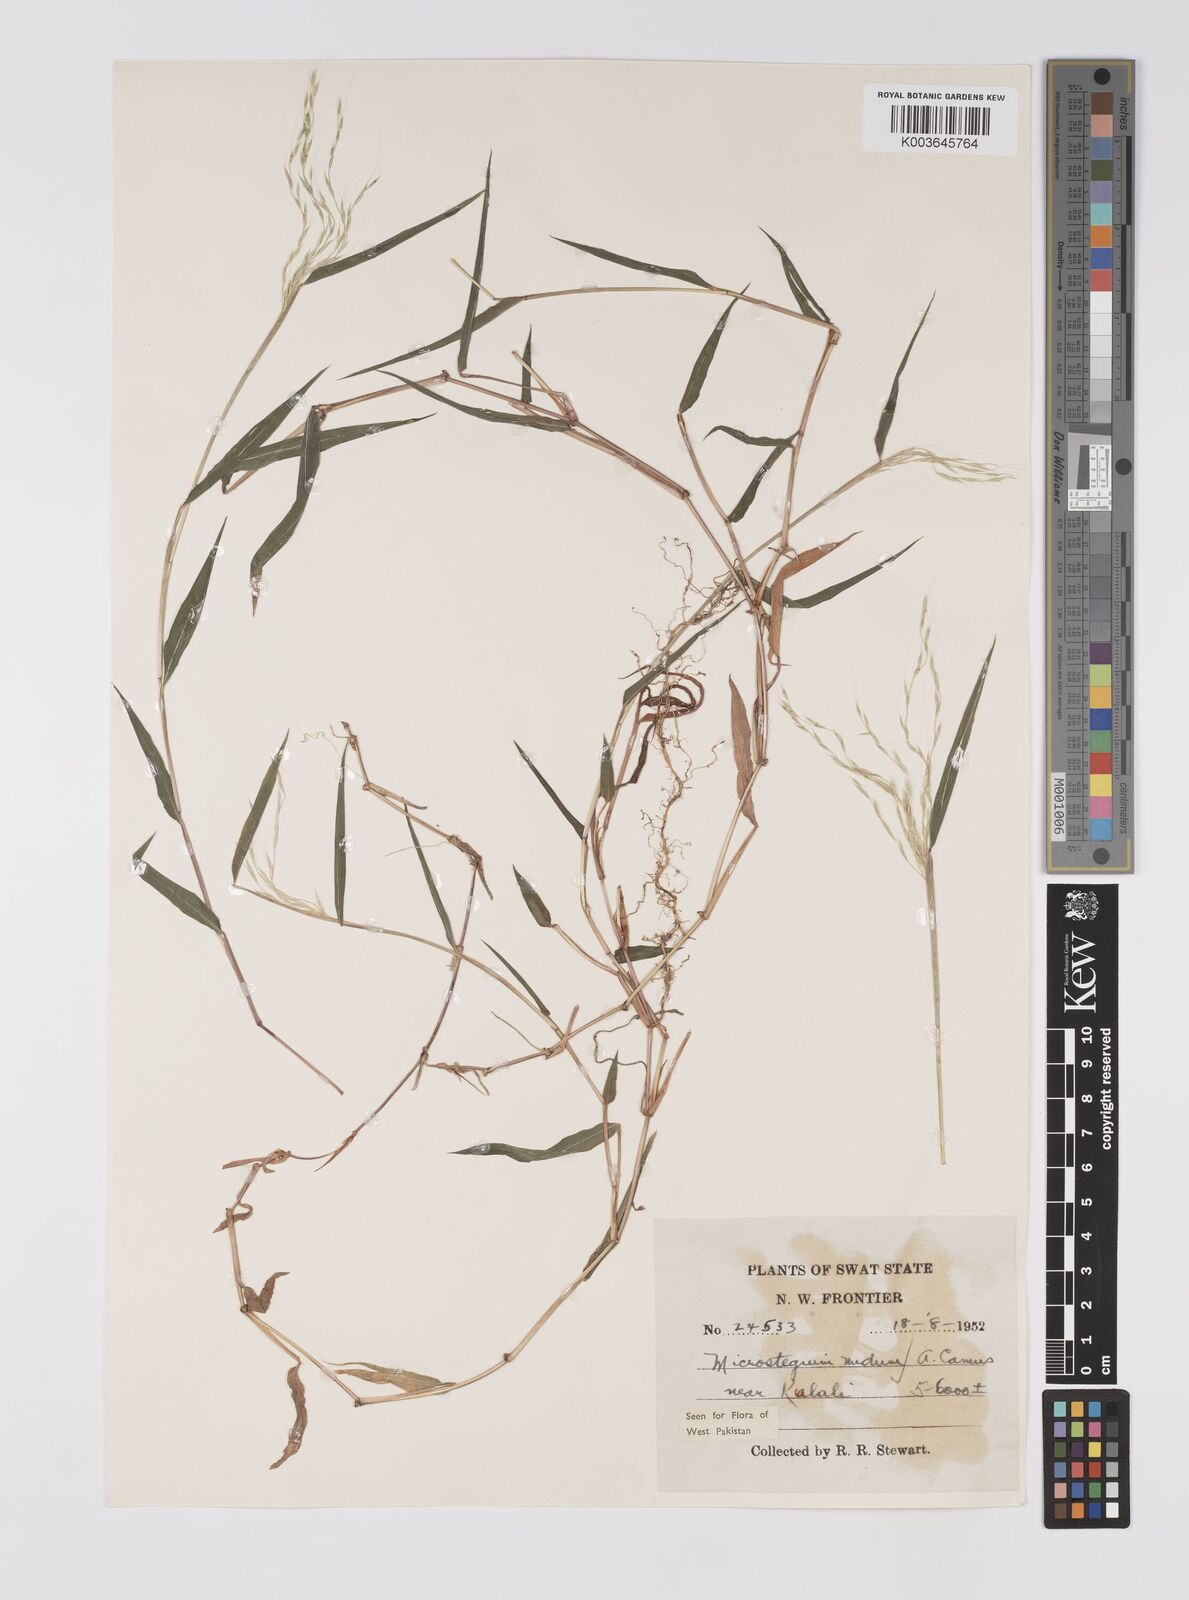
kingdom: Plantae
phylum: Tracheophyta
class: Liliopsida
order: Poales
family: Poaceae
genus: Microstegium
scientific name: Microstegium nudum
